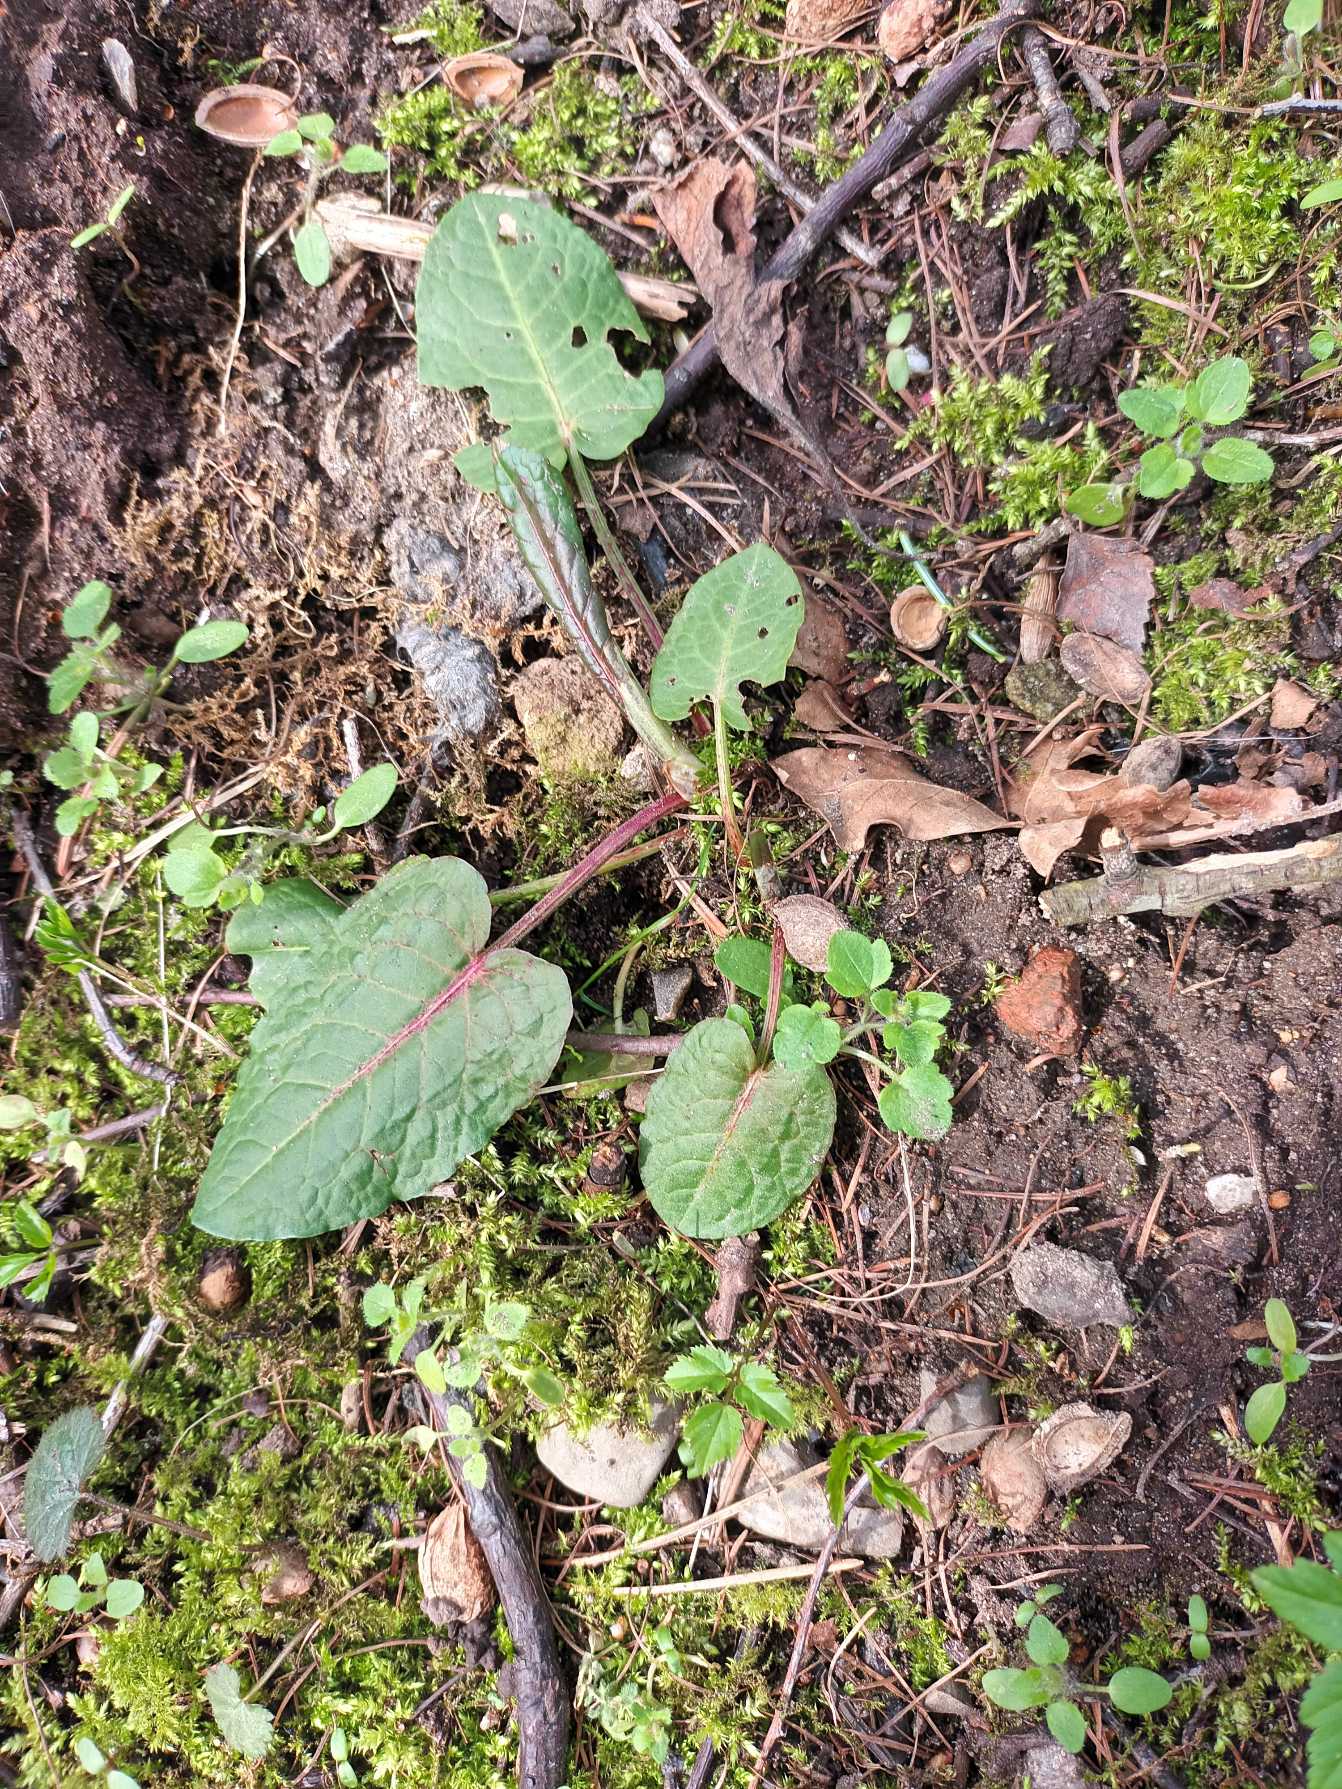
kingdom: Plantae
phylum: Tracheophyta
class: Magnoliopsida
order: Caryophyllales
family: Polygonaceae
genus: Rumex
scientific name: Rumex obtusifolius
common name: Butbladet skræppe
